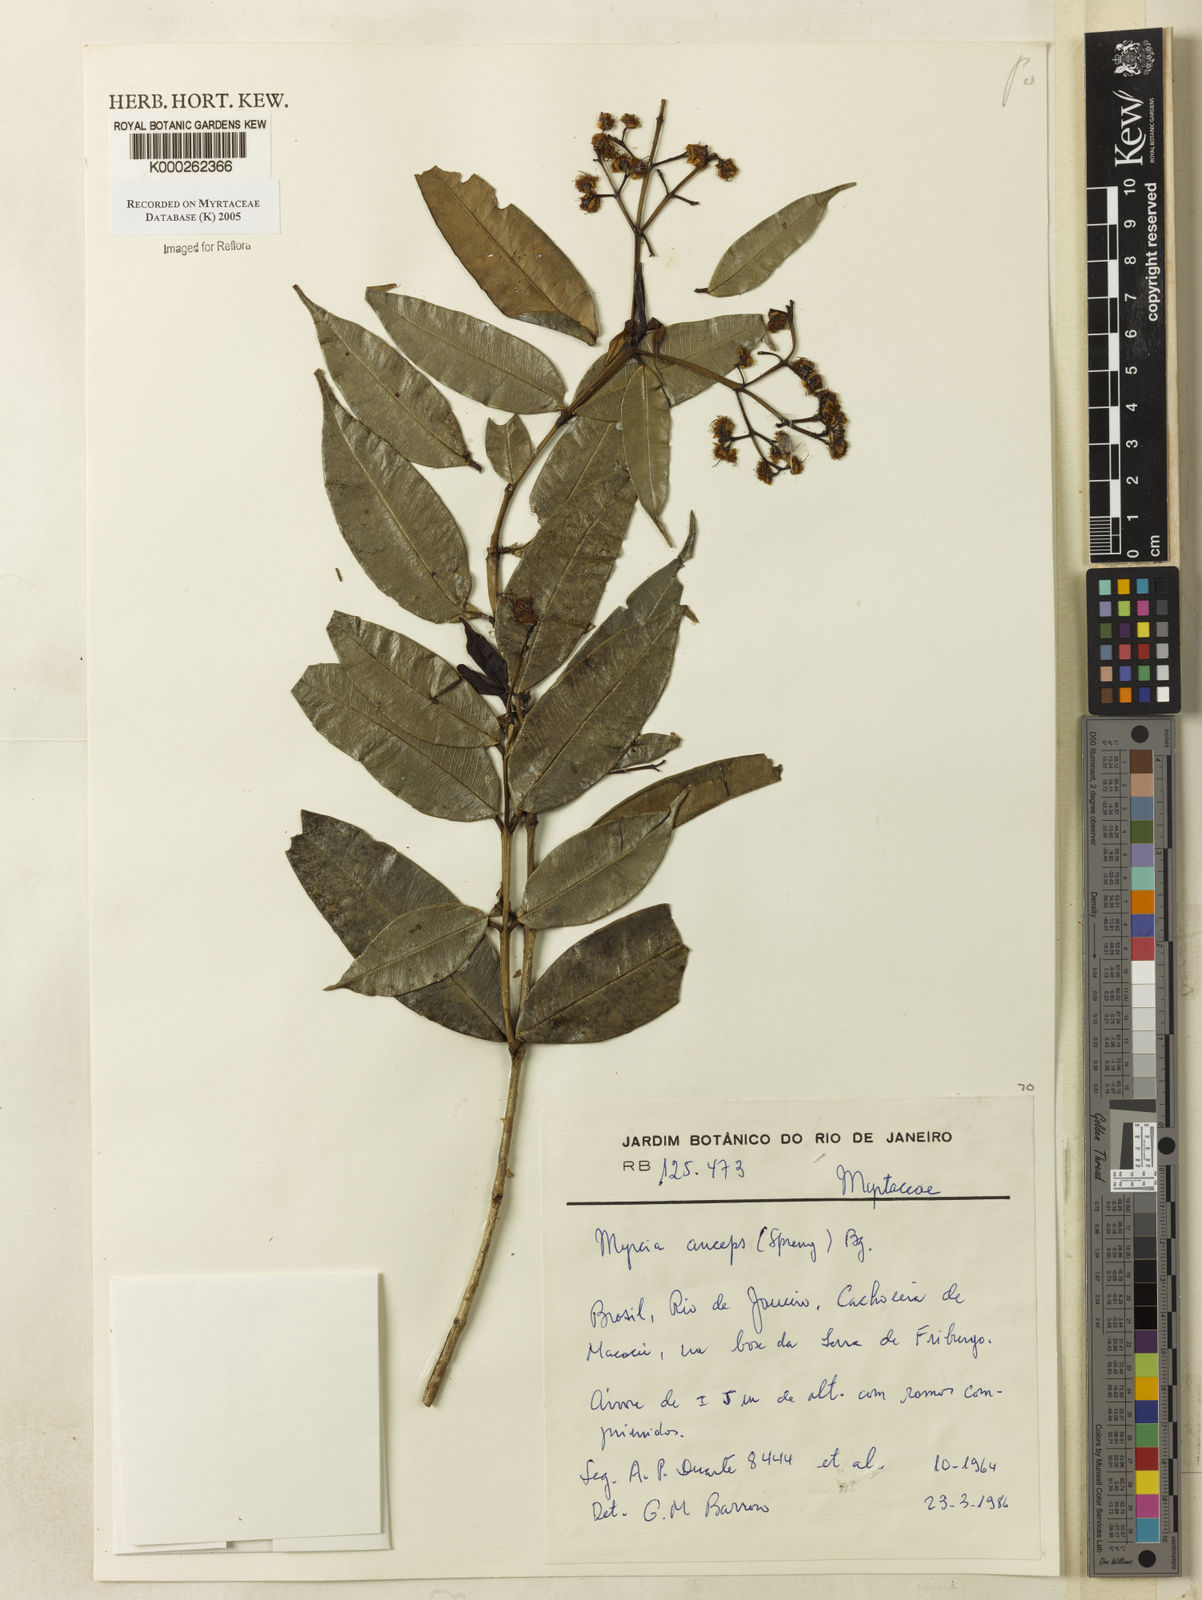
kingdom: Plantae
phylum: Tracheophyta
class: Magnoliopsida
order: Myrtales
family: Myrtaceae
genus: Myrcia
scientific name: Myrcia anceps
